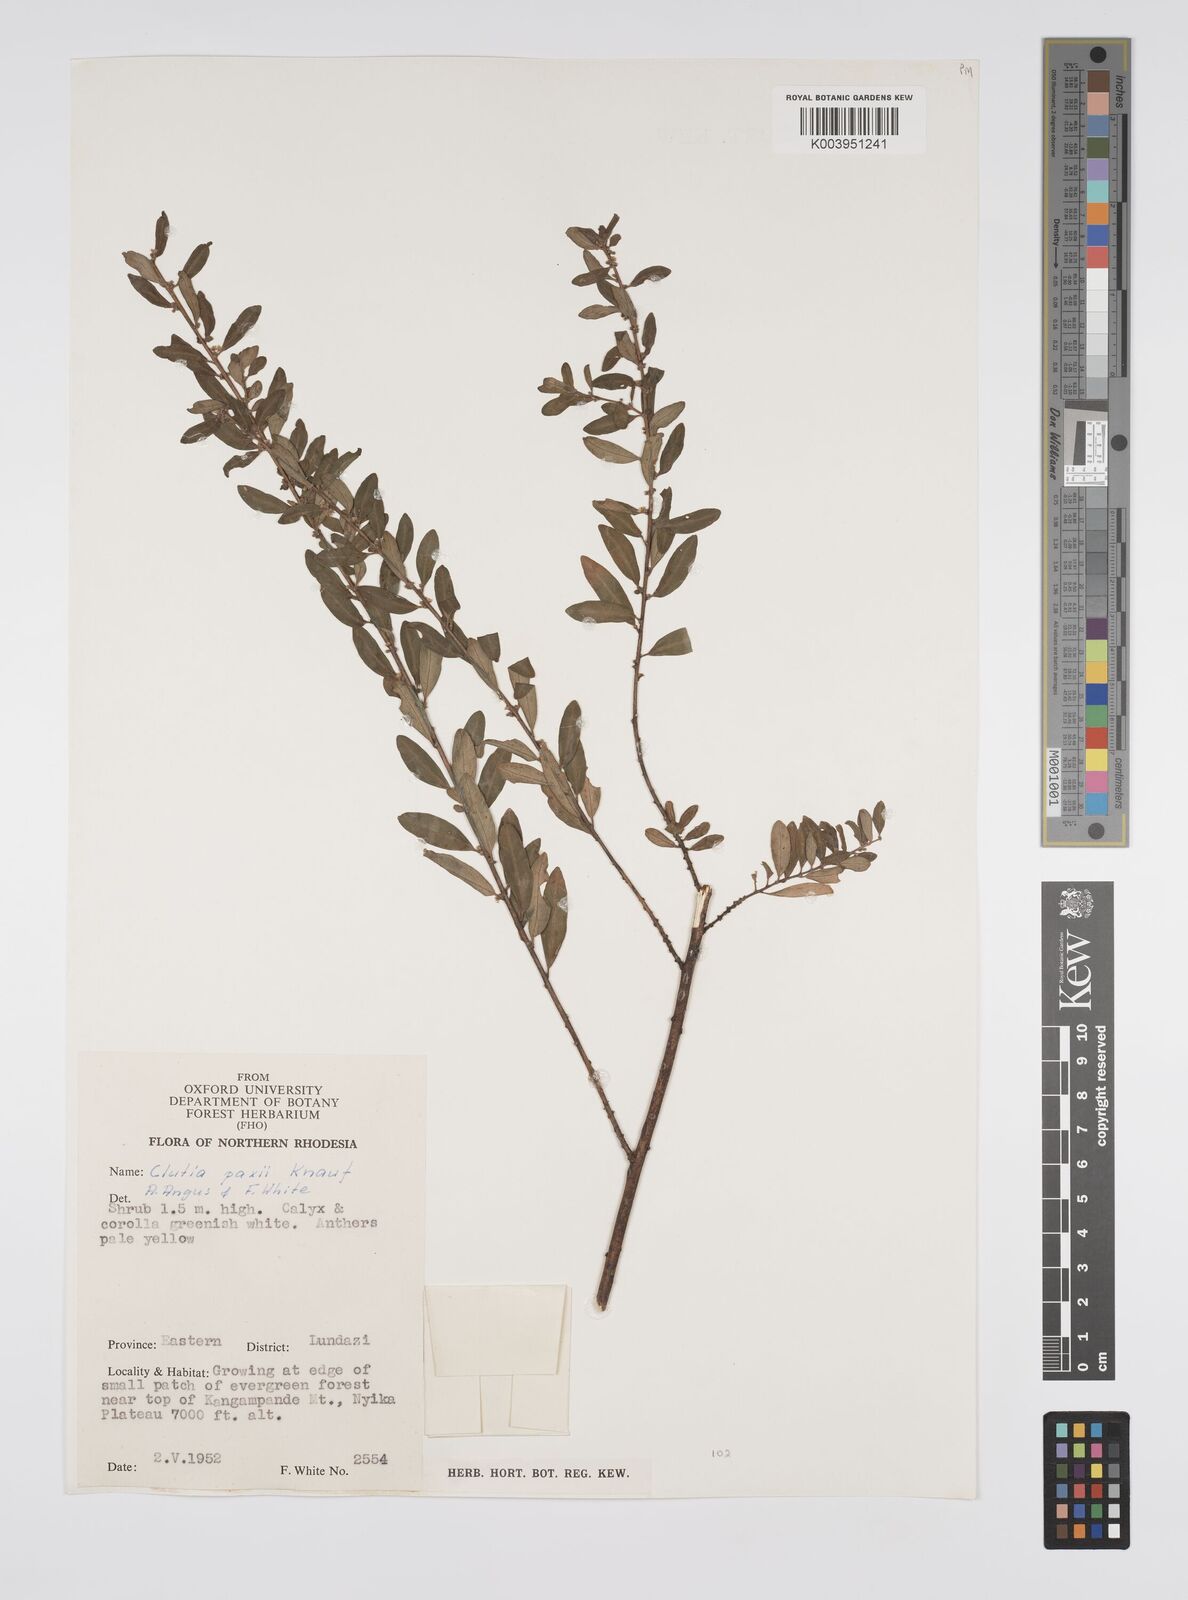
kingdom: Plantae
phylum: Tracheophyta
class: Magnoliopsida
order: Malpighiales
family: Peraceae
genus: Clutia
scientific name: Clutia paxii
